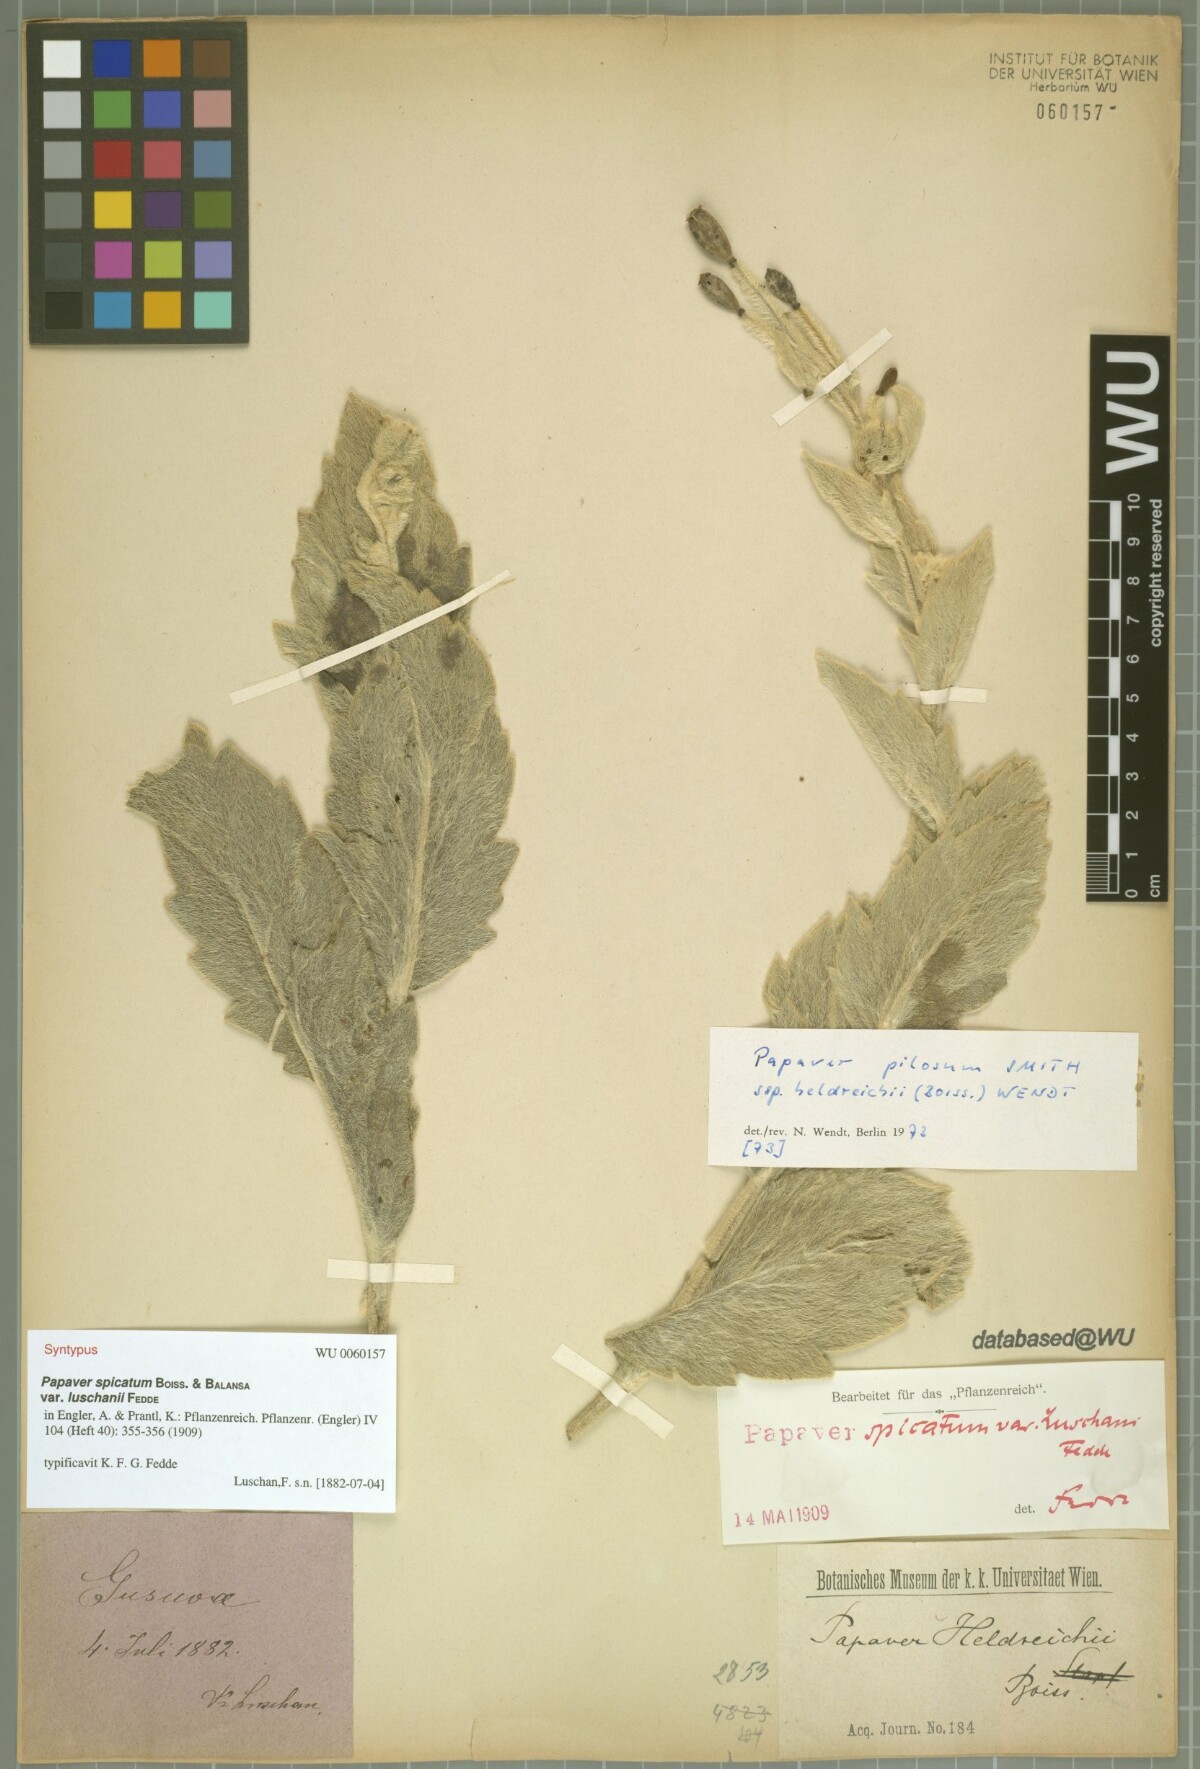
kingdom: Plantae
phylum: Tracheophyta
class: Magnoliopsida
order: Ranunculales
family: Papaveraceae
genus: Papaver
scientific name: Papaver pilosum
